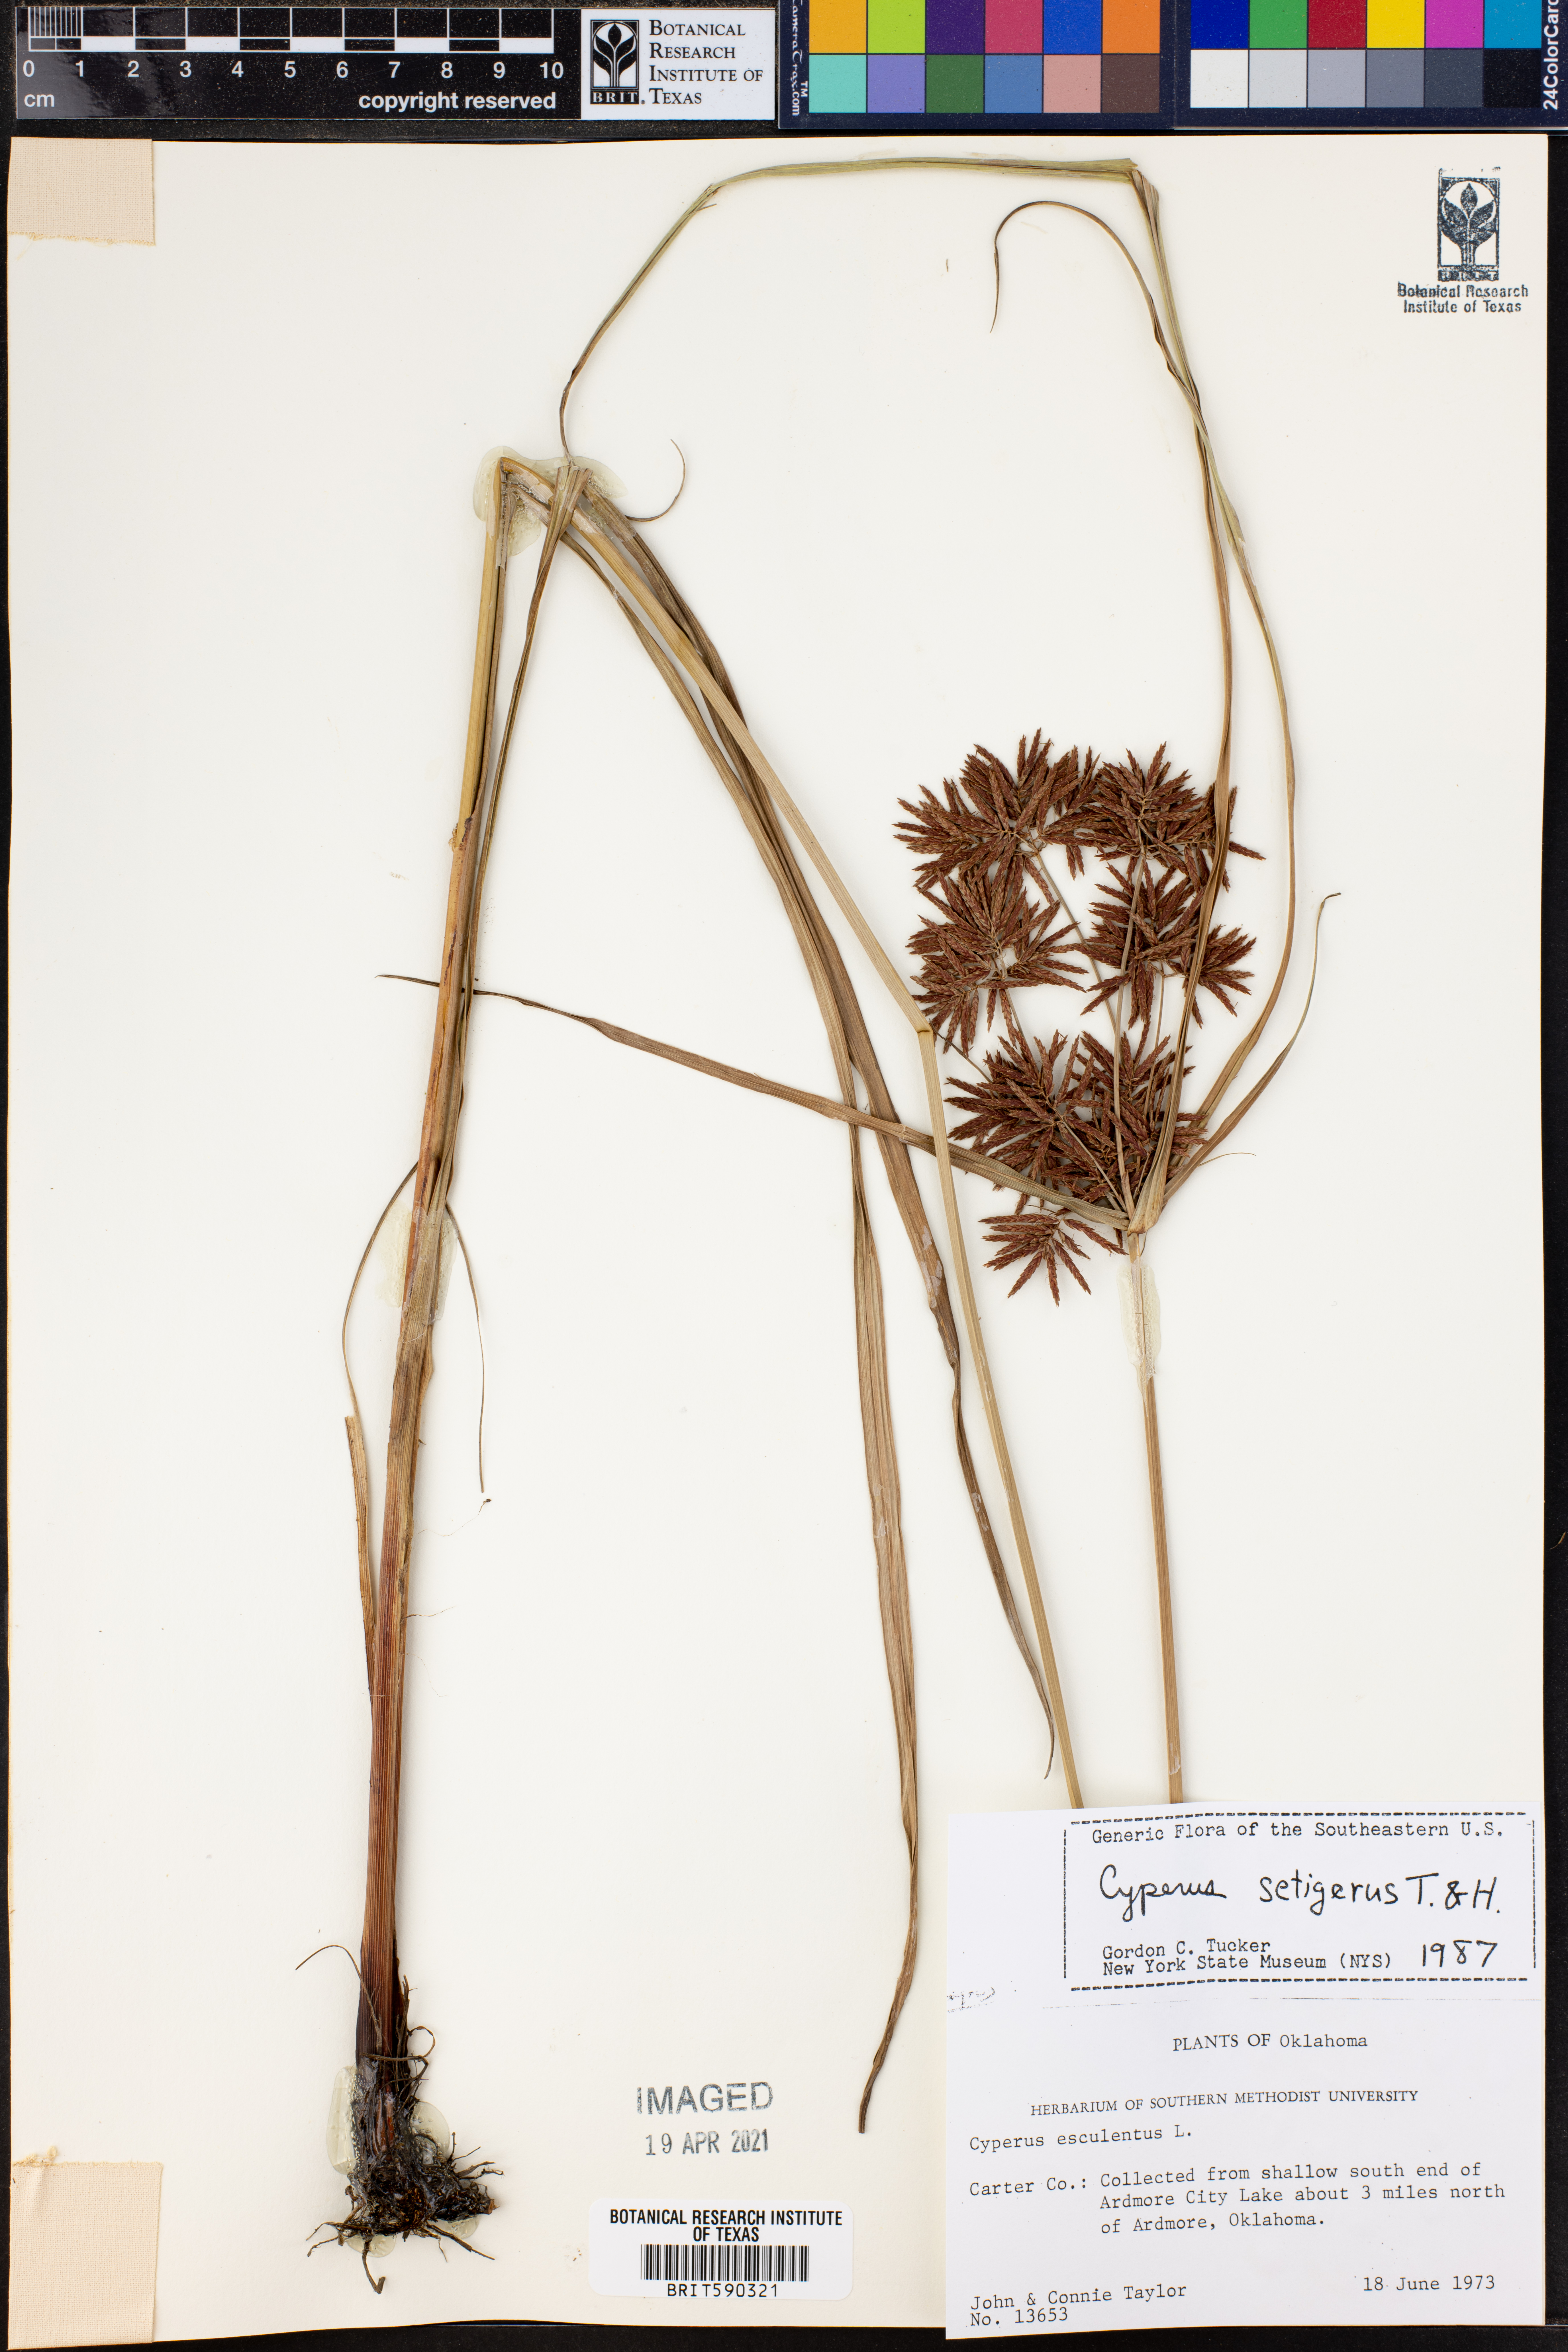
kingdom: Plantae
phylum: Tracheophyta
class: Liliopsida
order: Poales
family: Cyperaceae
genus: Cyperus
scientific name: Cyperus setigerus
